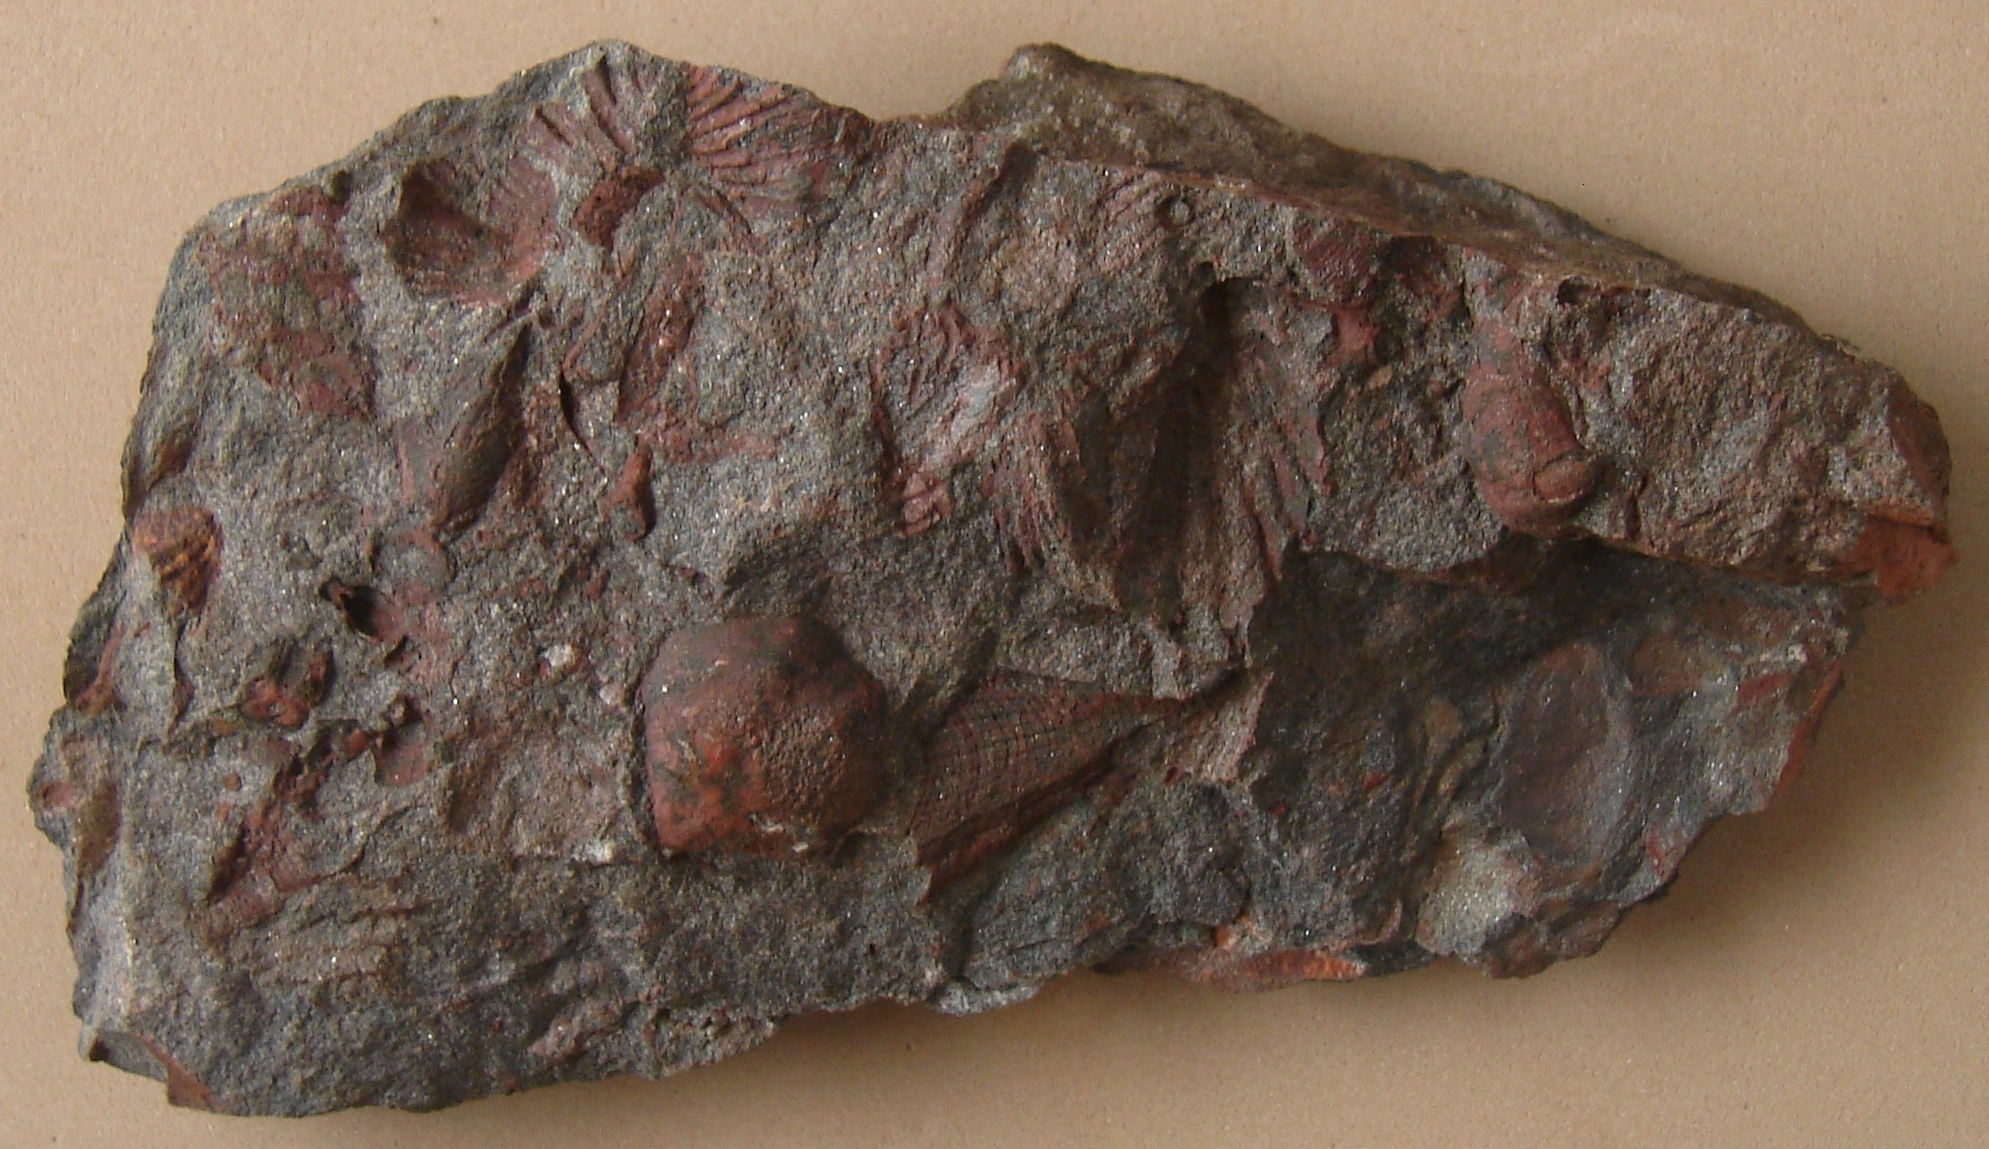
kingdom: Animalia
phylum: Mollusca
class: Bivalvia
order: Ostreida
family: Pterineidae
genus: Ptychopteria
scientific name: Ptychopteria
